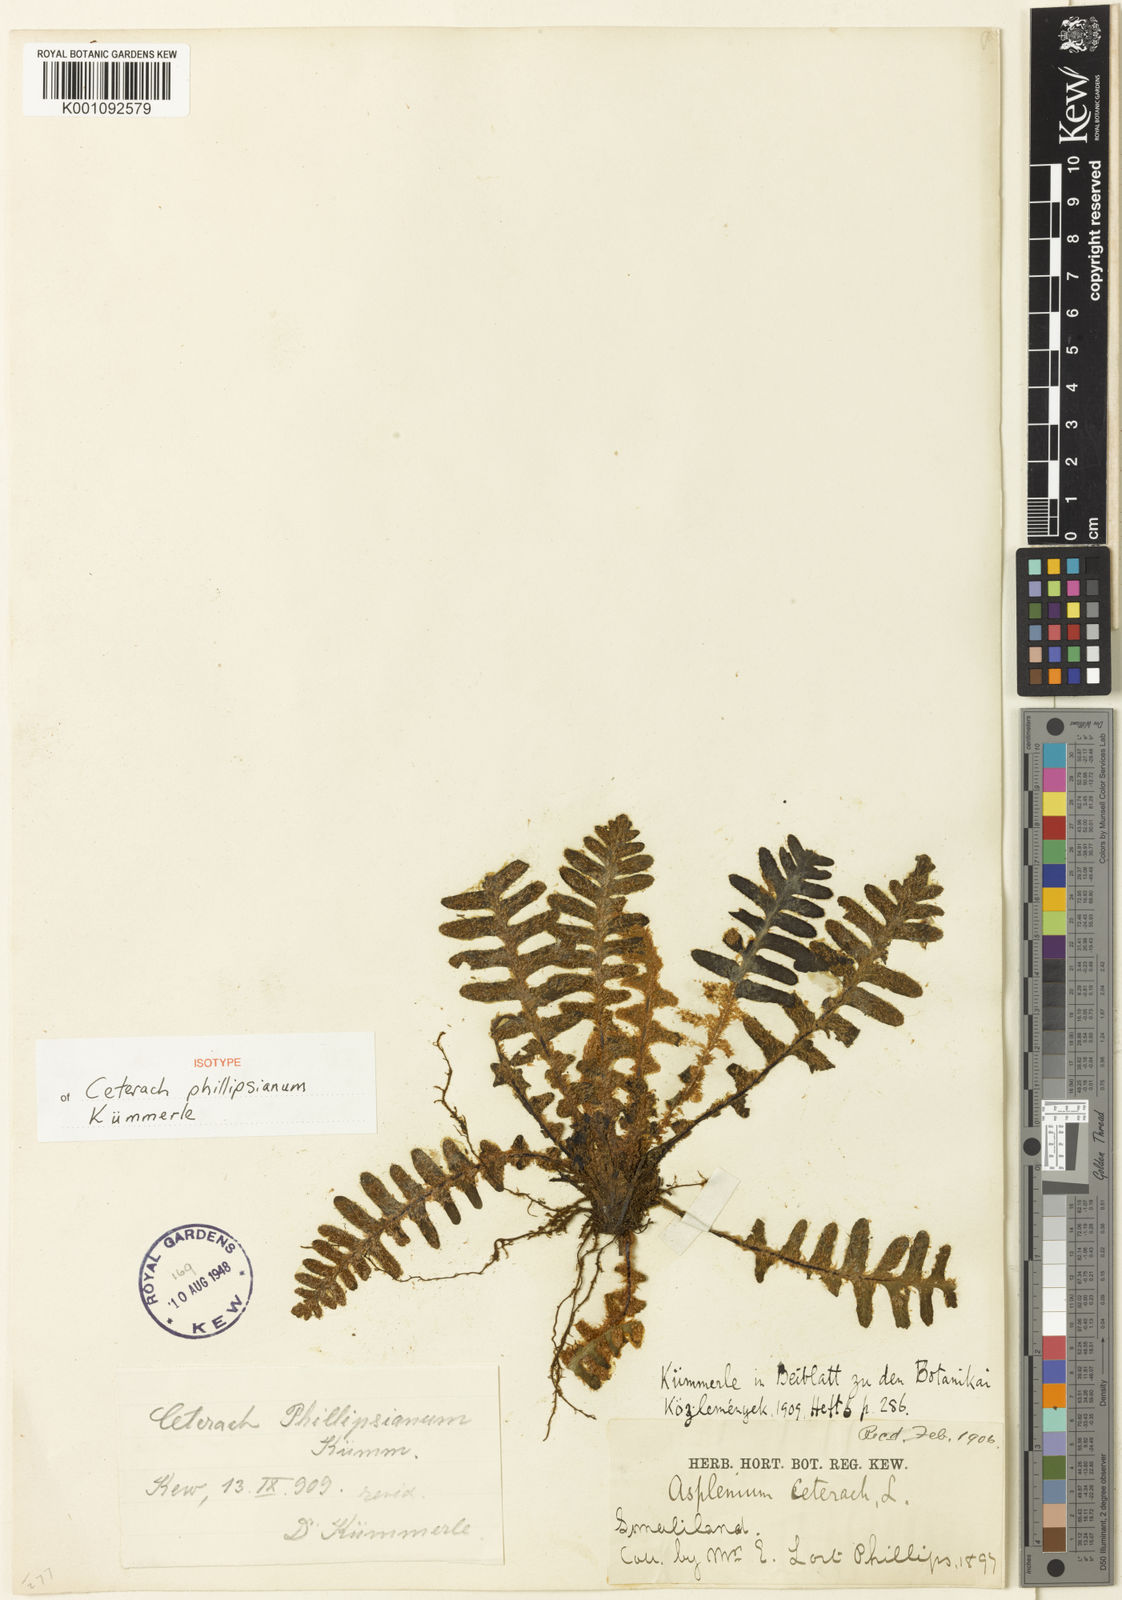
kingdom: Plantae
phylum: Tracheophyta
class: Polypodiopsida
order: Polypodiales
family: Aspleniaceae
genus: Ceterach
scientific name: Ceterach
